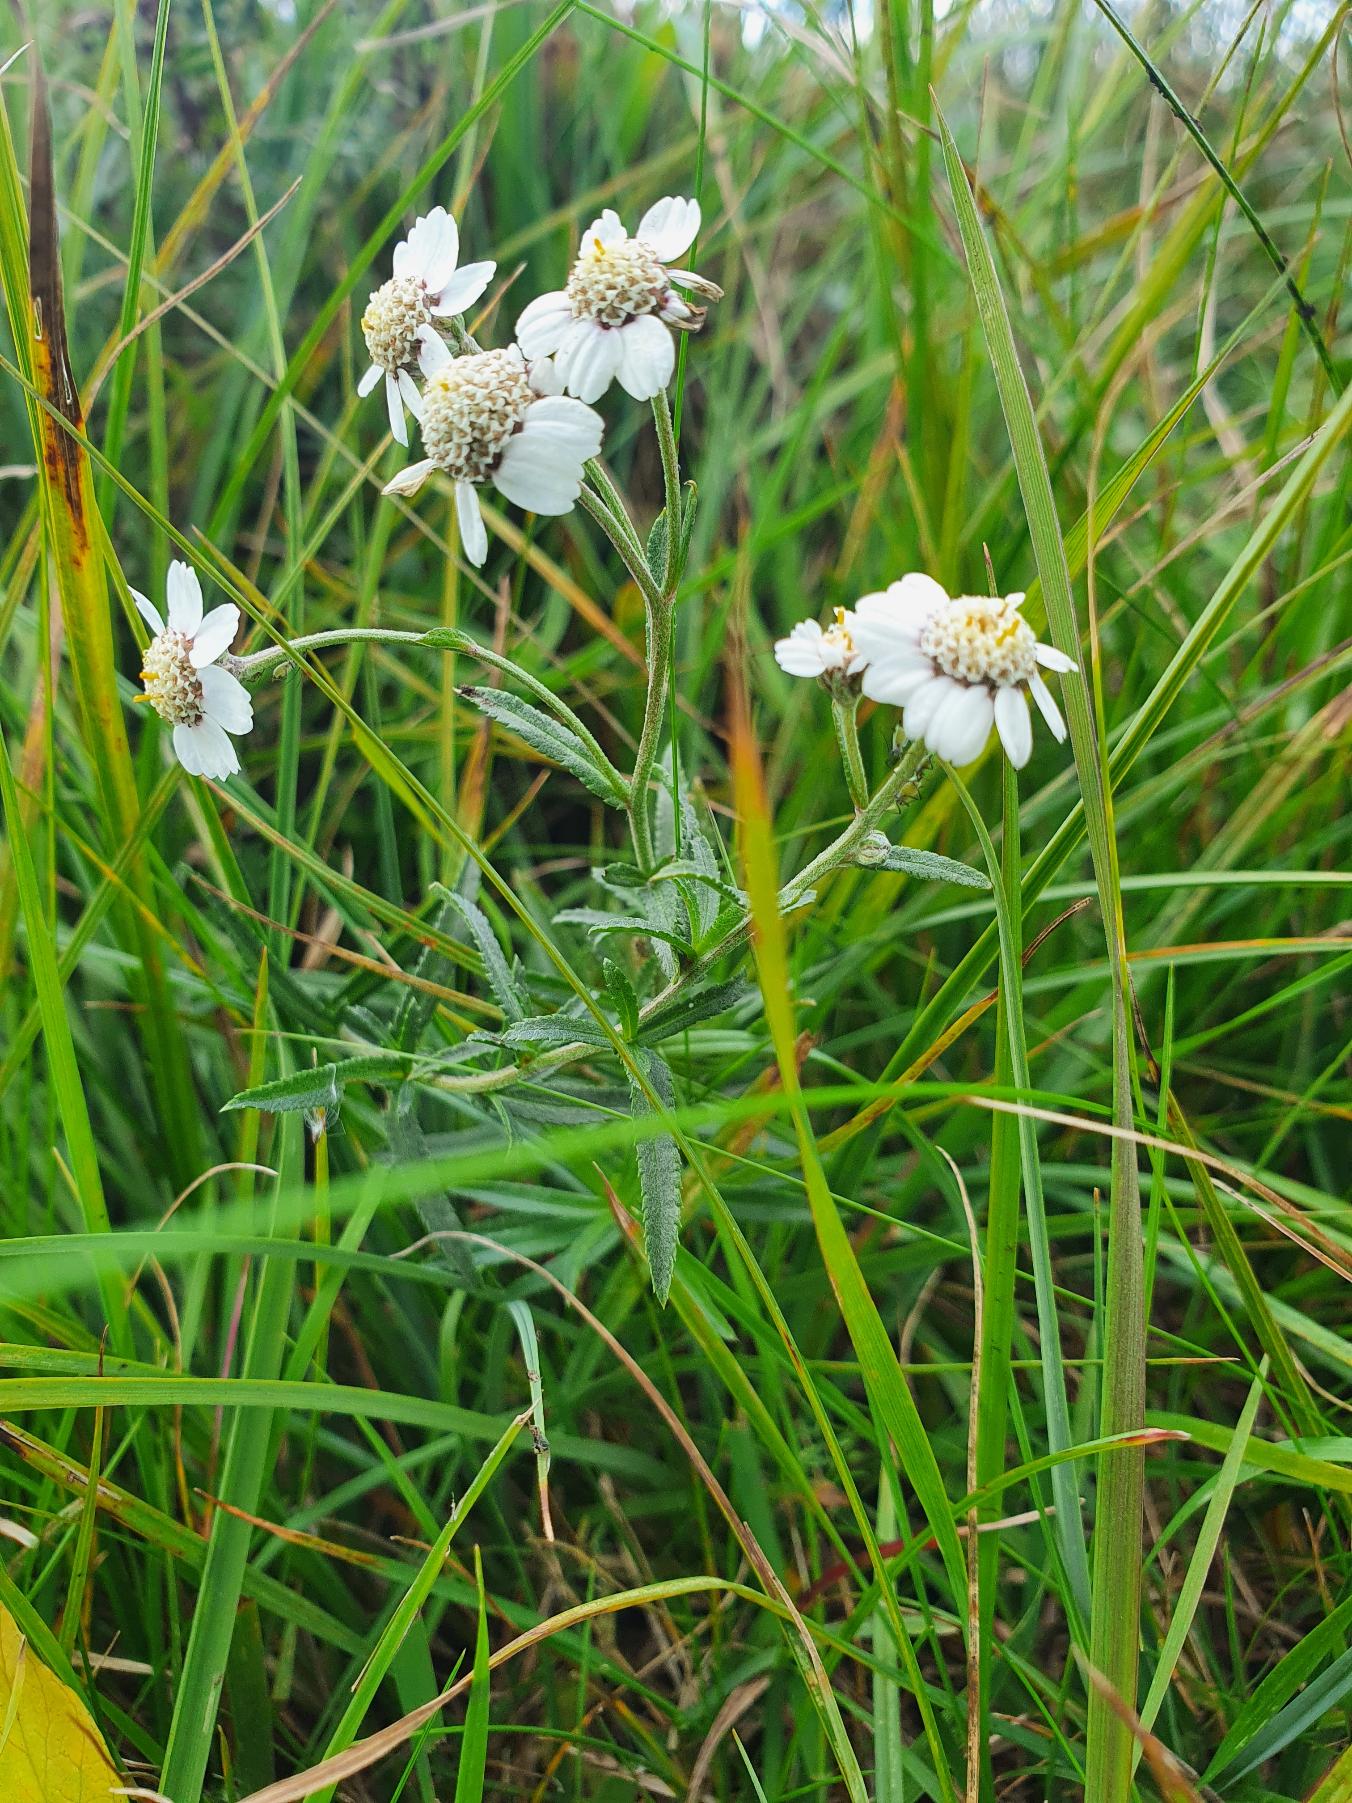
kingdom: Plantae
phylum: Tracheophyta
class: Magnoliopsida
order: Asterales
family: Asteraceae
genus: Achillea
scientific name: Achillea ptarmica
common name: Nyse-røllike
